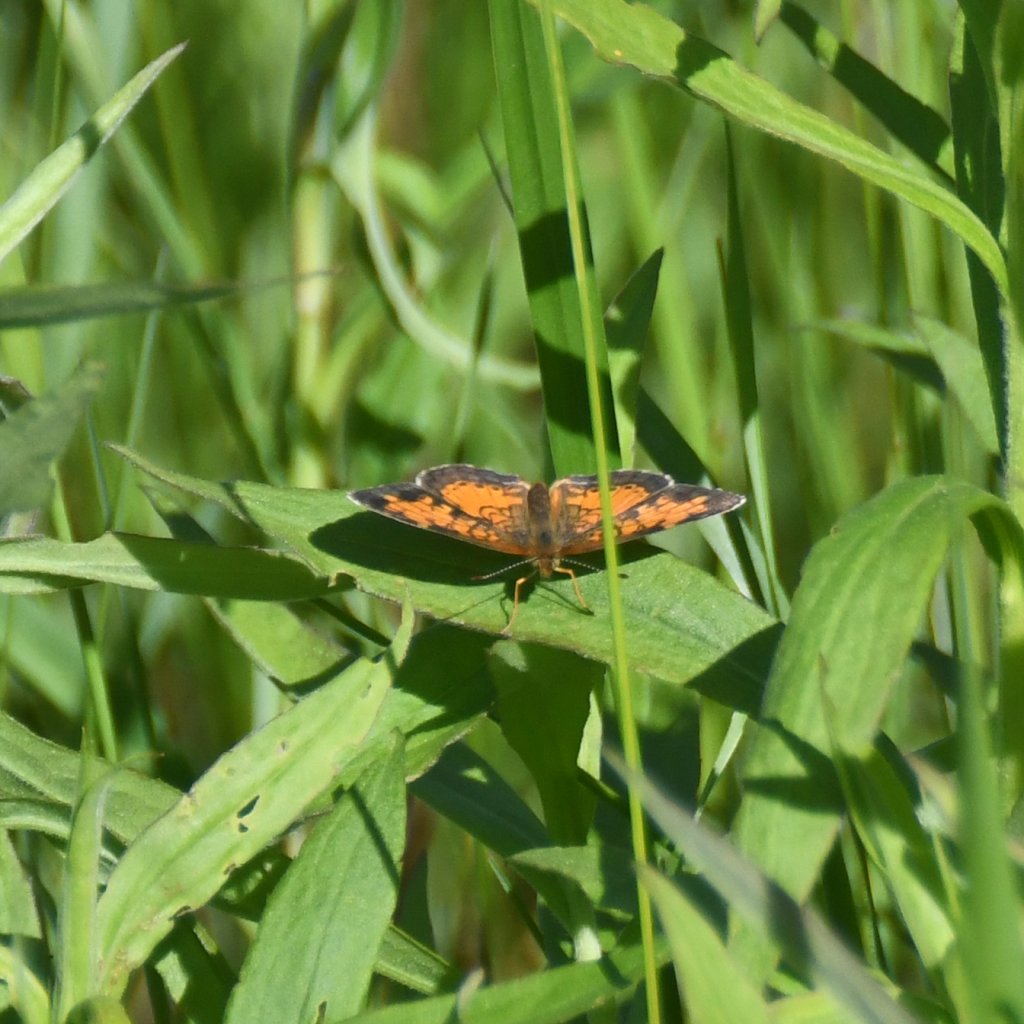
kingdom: Animalia
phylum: Arthropoda
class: Insecta
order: Lepidoptera
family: Nymphalidae
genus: Phyciodes
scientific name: Phyciodes tharos
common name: Northern Crescent
